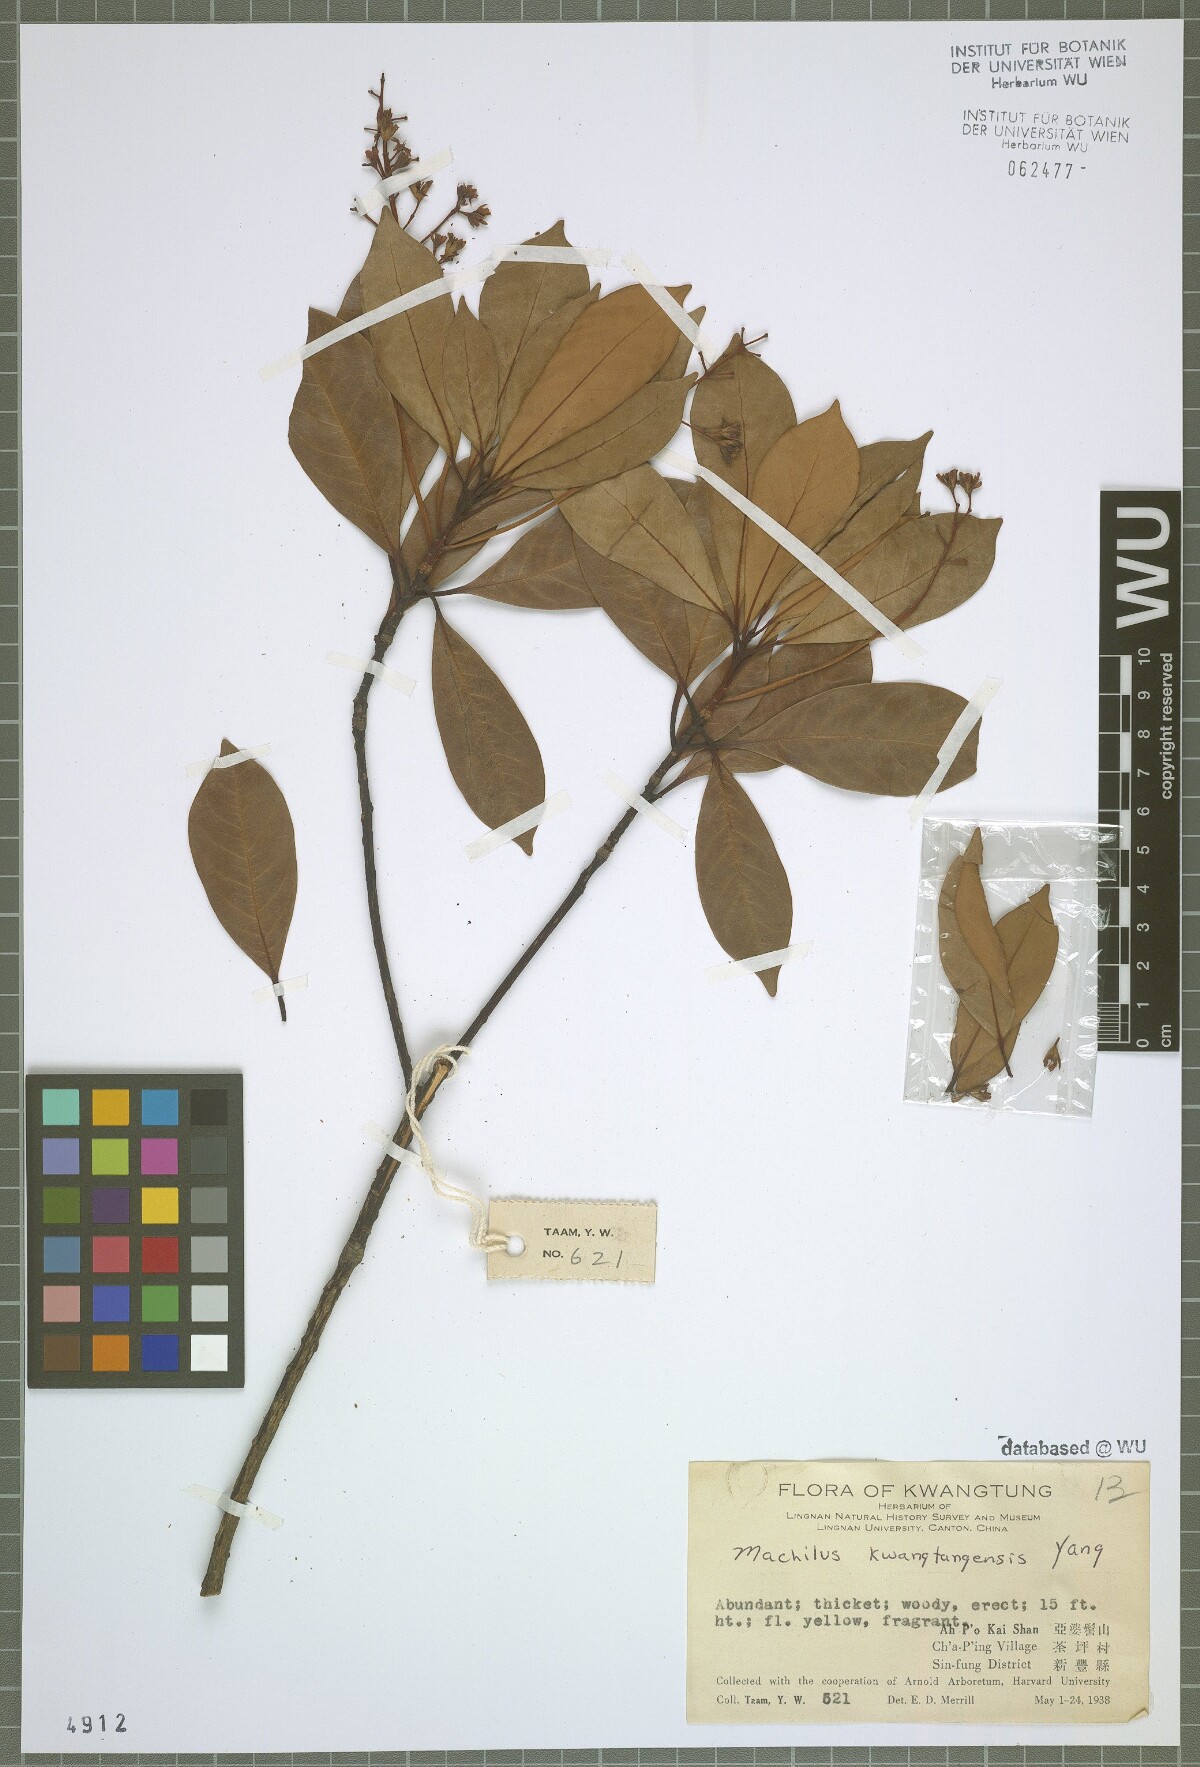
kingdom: Plantae
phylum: Tracheophyta
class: Magnoliopsida
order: Laurales
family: Lauraceae
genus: Machilus
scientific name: Machilus kwangtungensis
